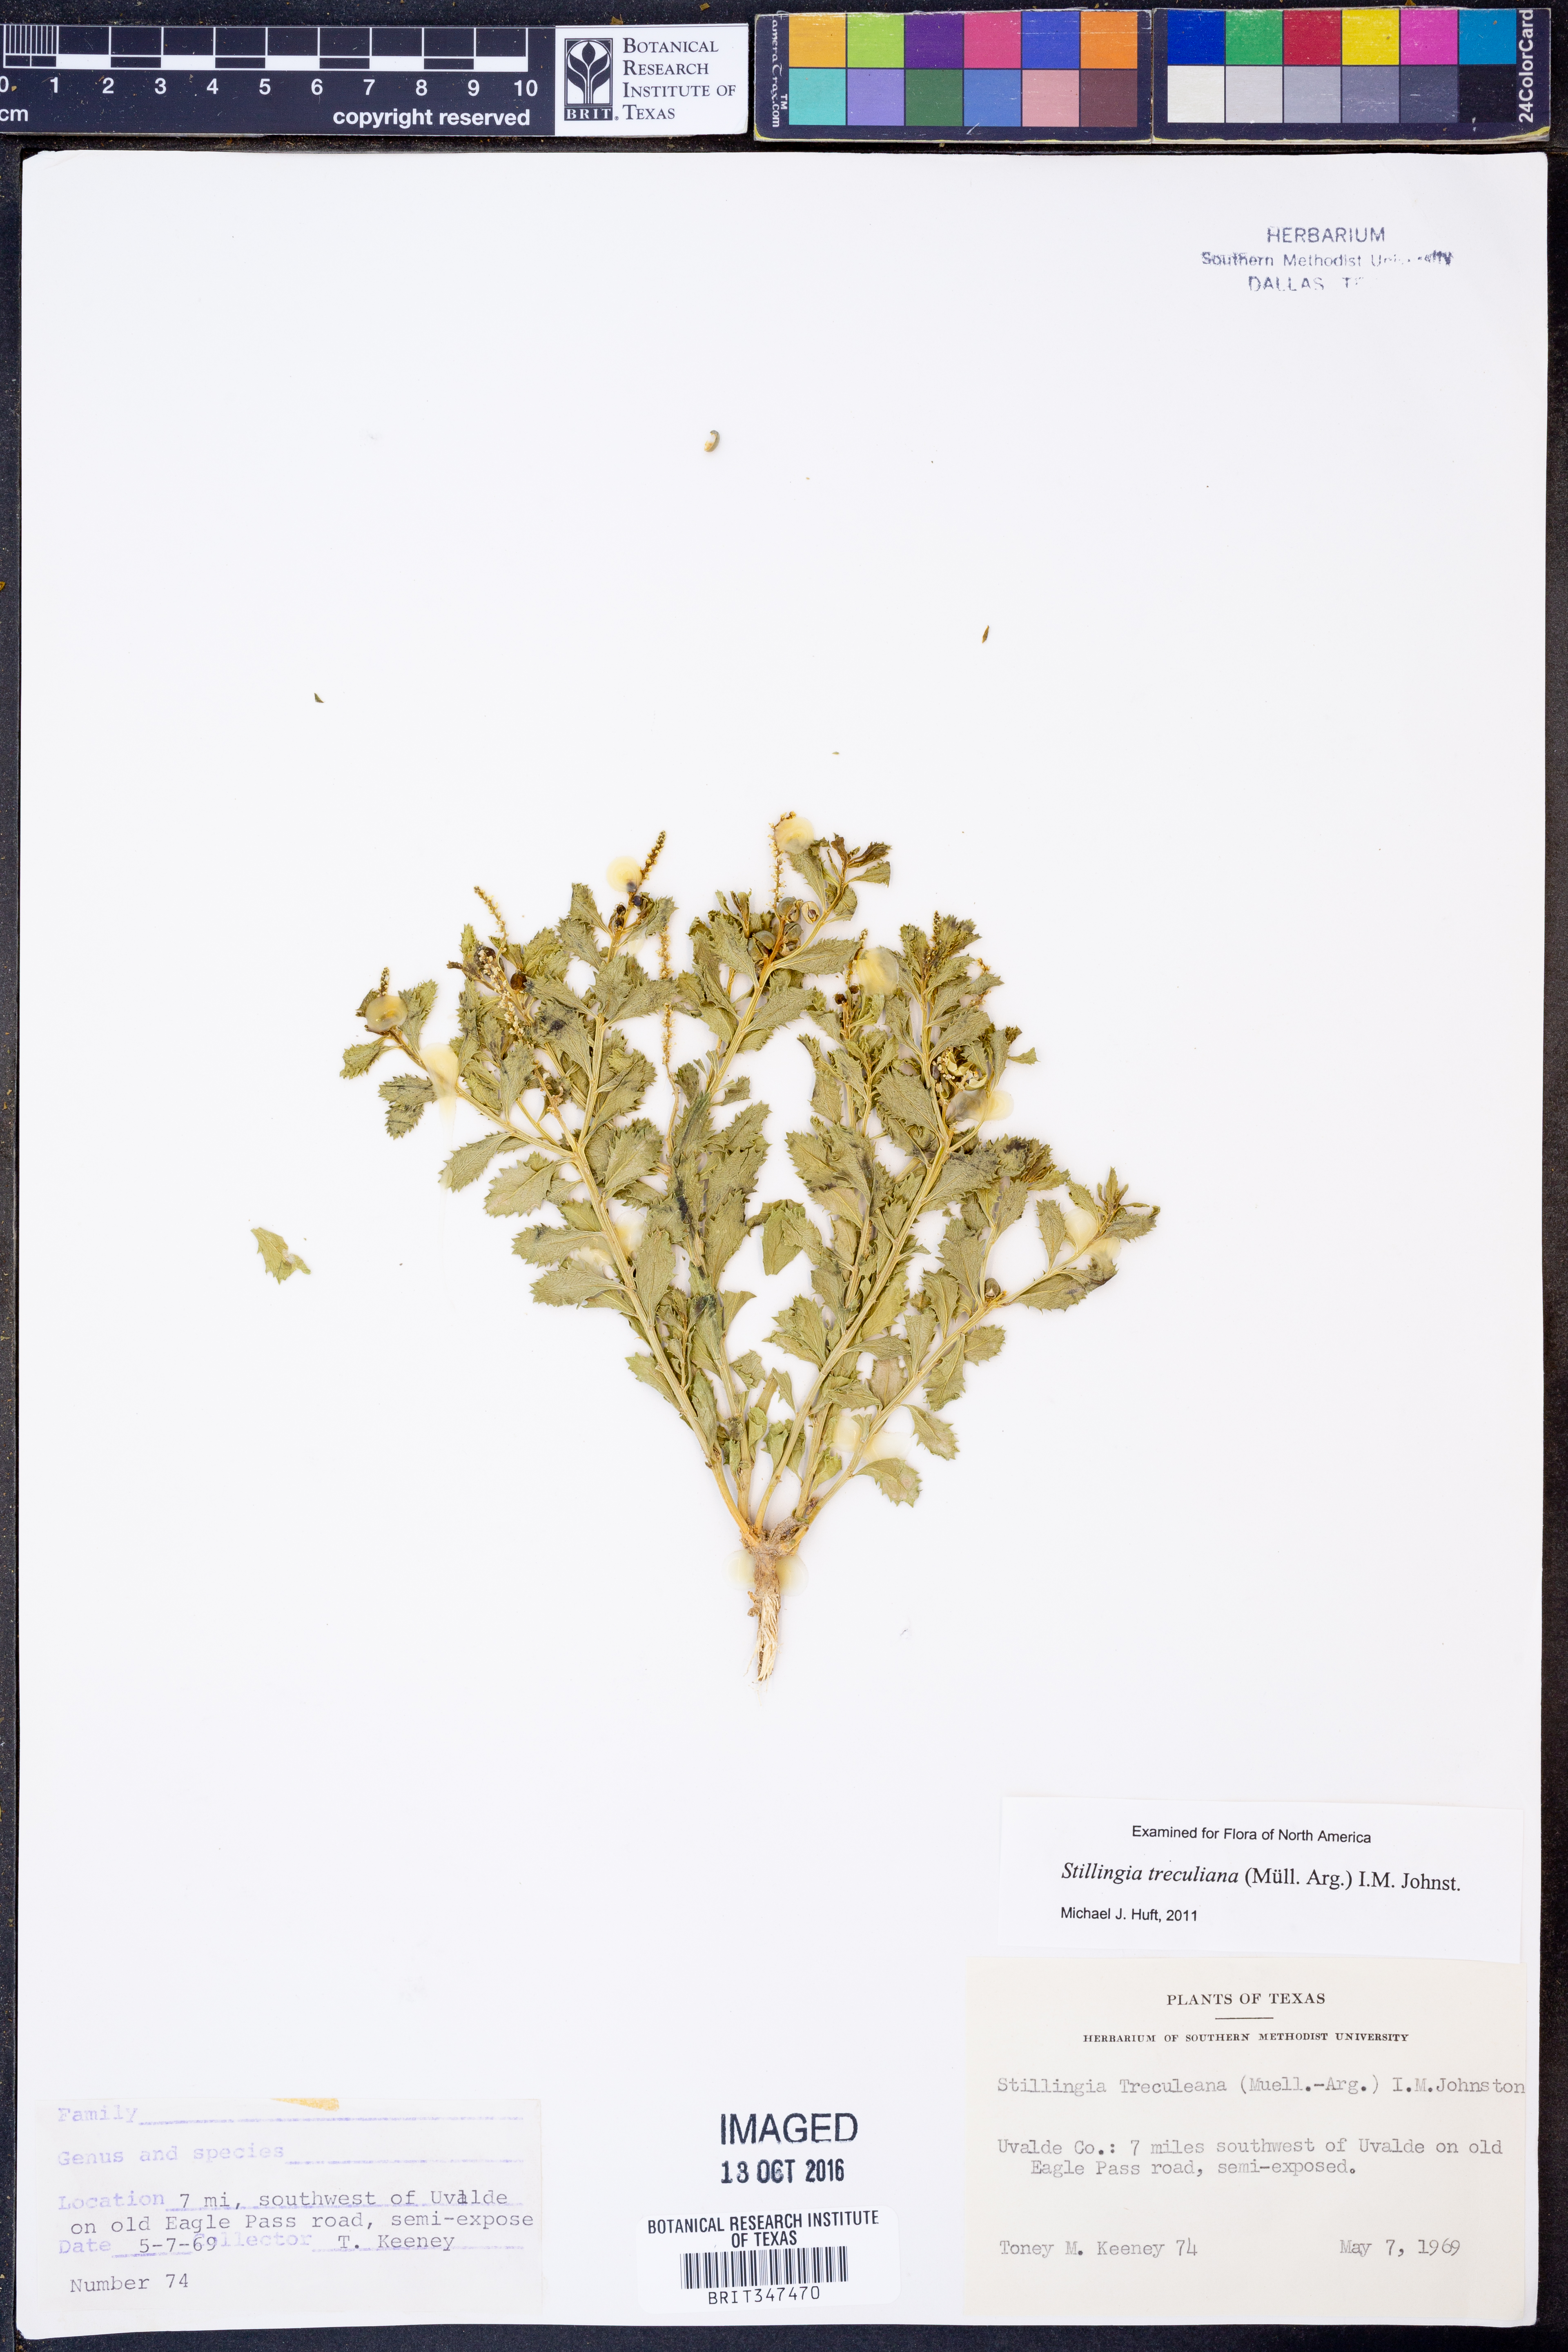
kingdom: Plantae
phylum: Tracheophyta
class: Magnoliopsida
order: Malpighiales
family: Euphorbiaceae
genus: Stillingia
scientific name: Stillingia treculiana
